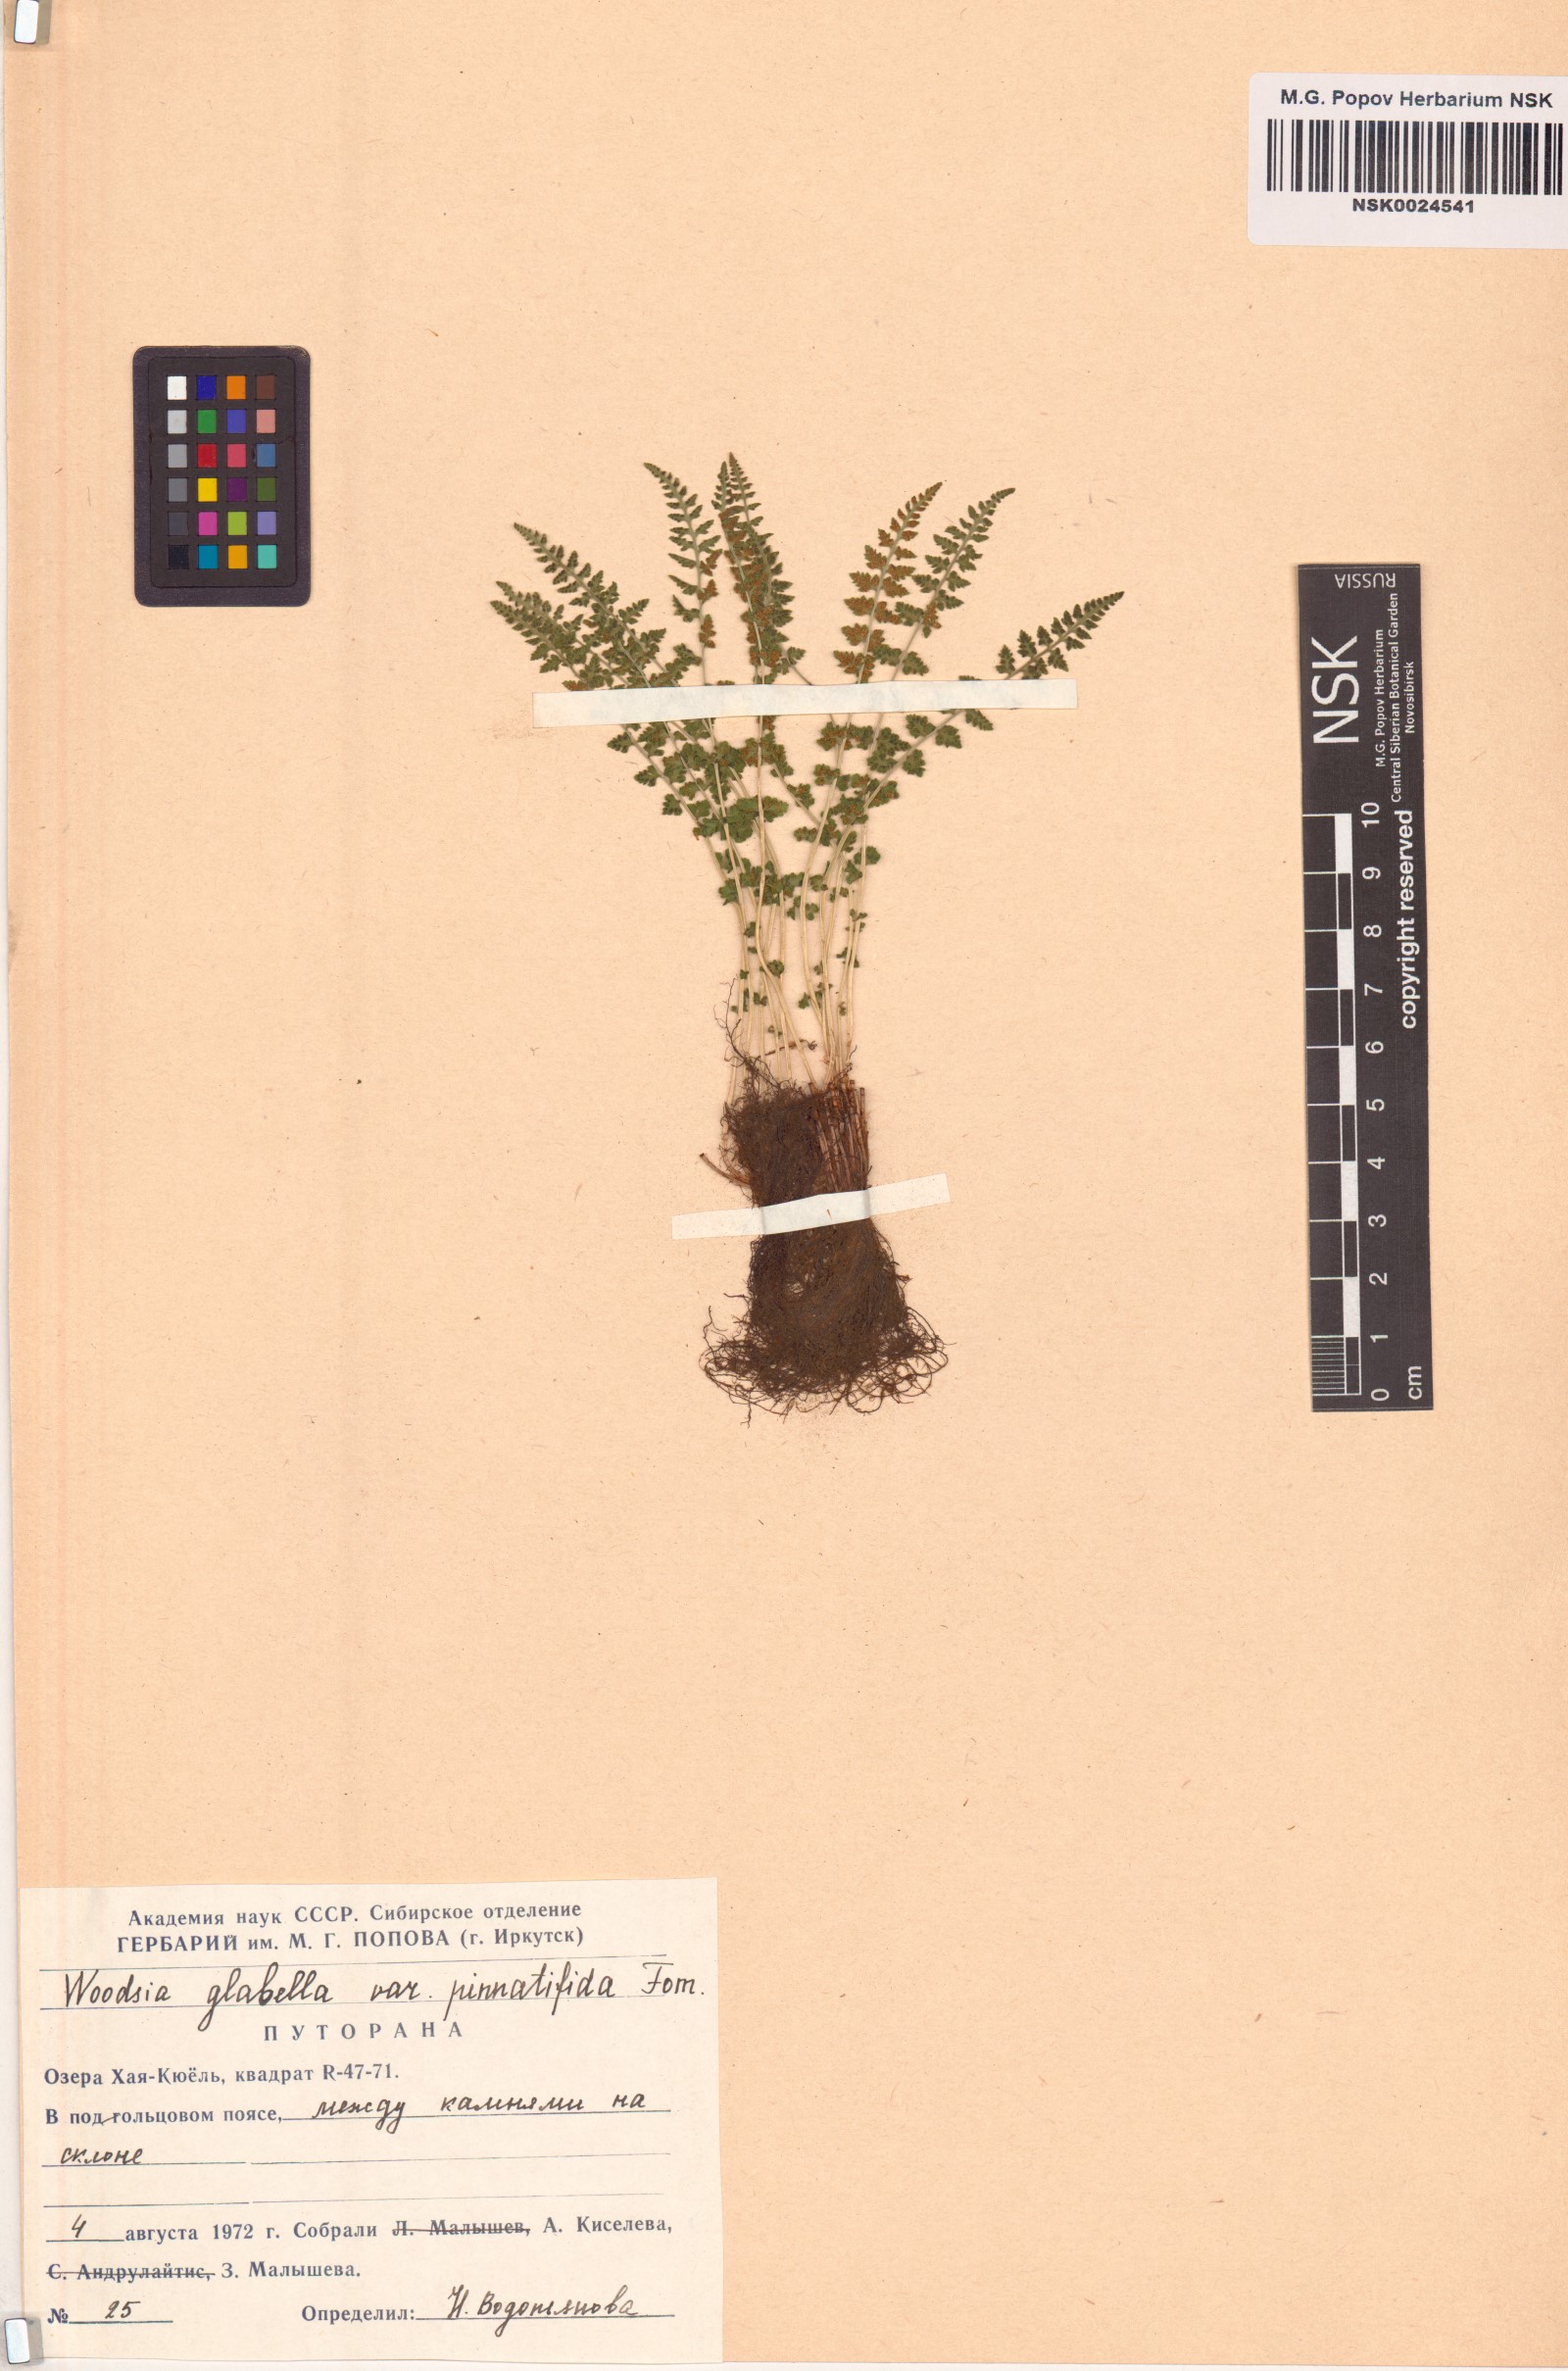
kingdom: Plantae
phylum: Tracheophyta
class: Polypodiopsida
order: Polypodiales
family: Woodsiaceae
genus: Woodsia
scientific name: Woodsia pulchella
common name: Graceful woodsia
